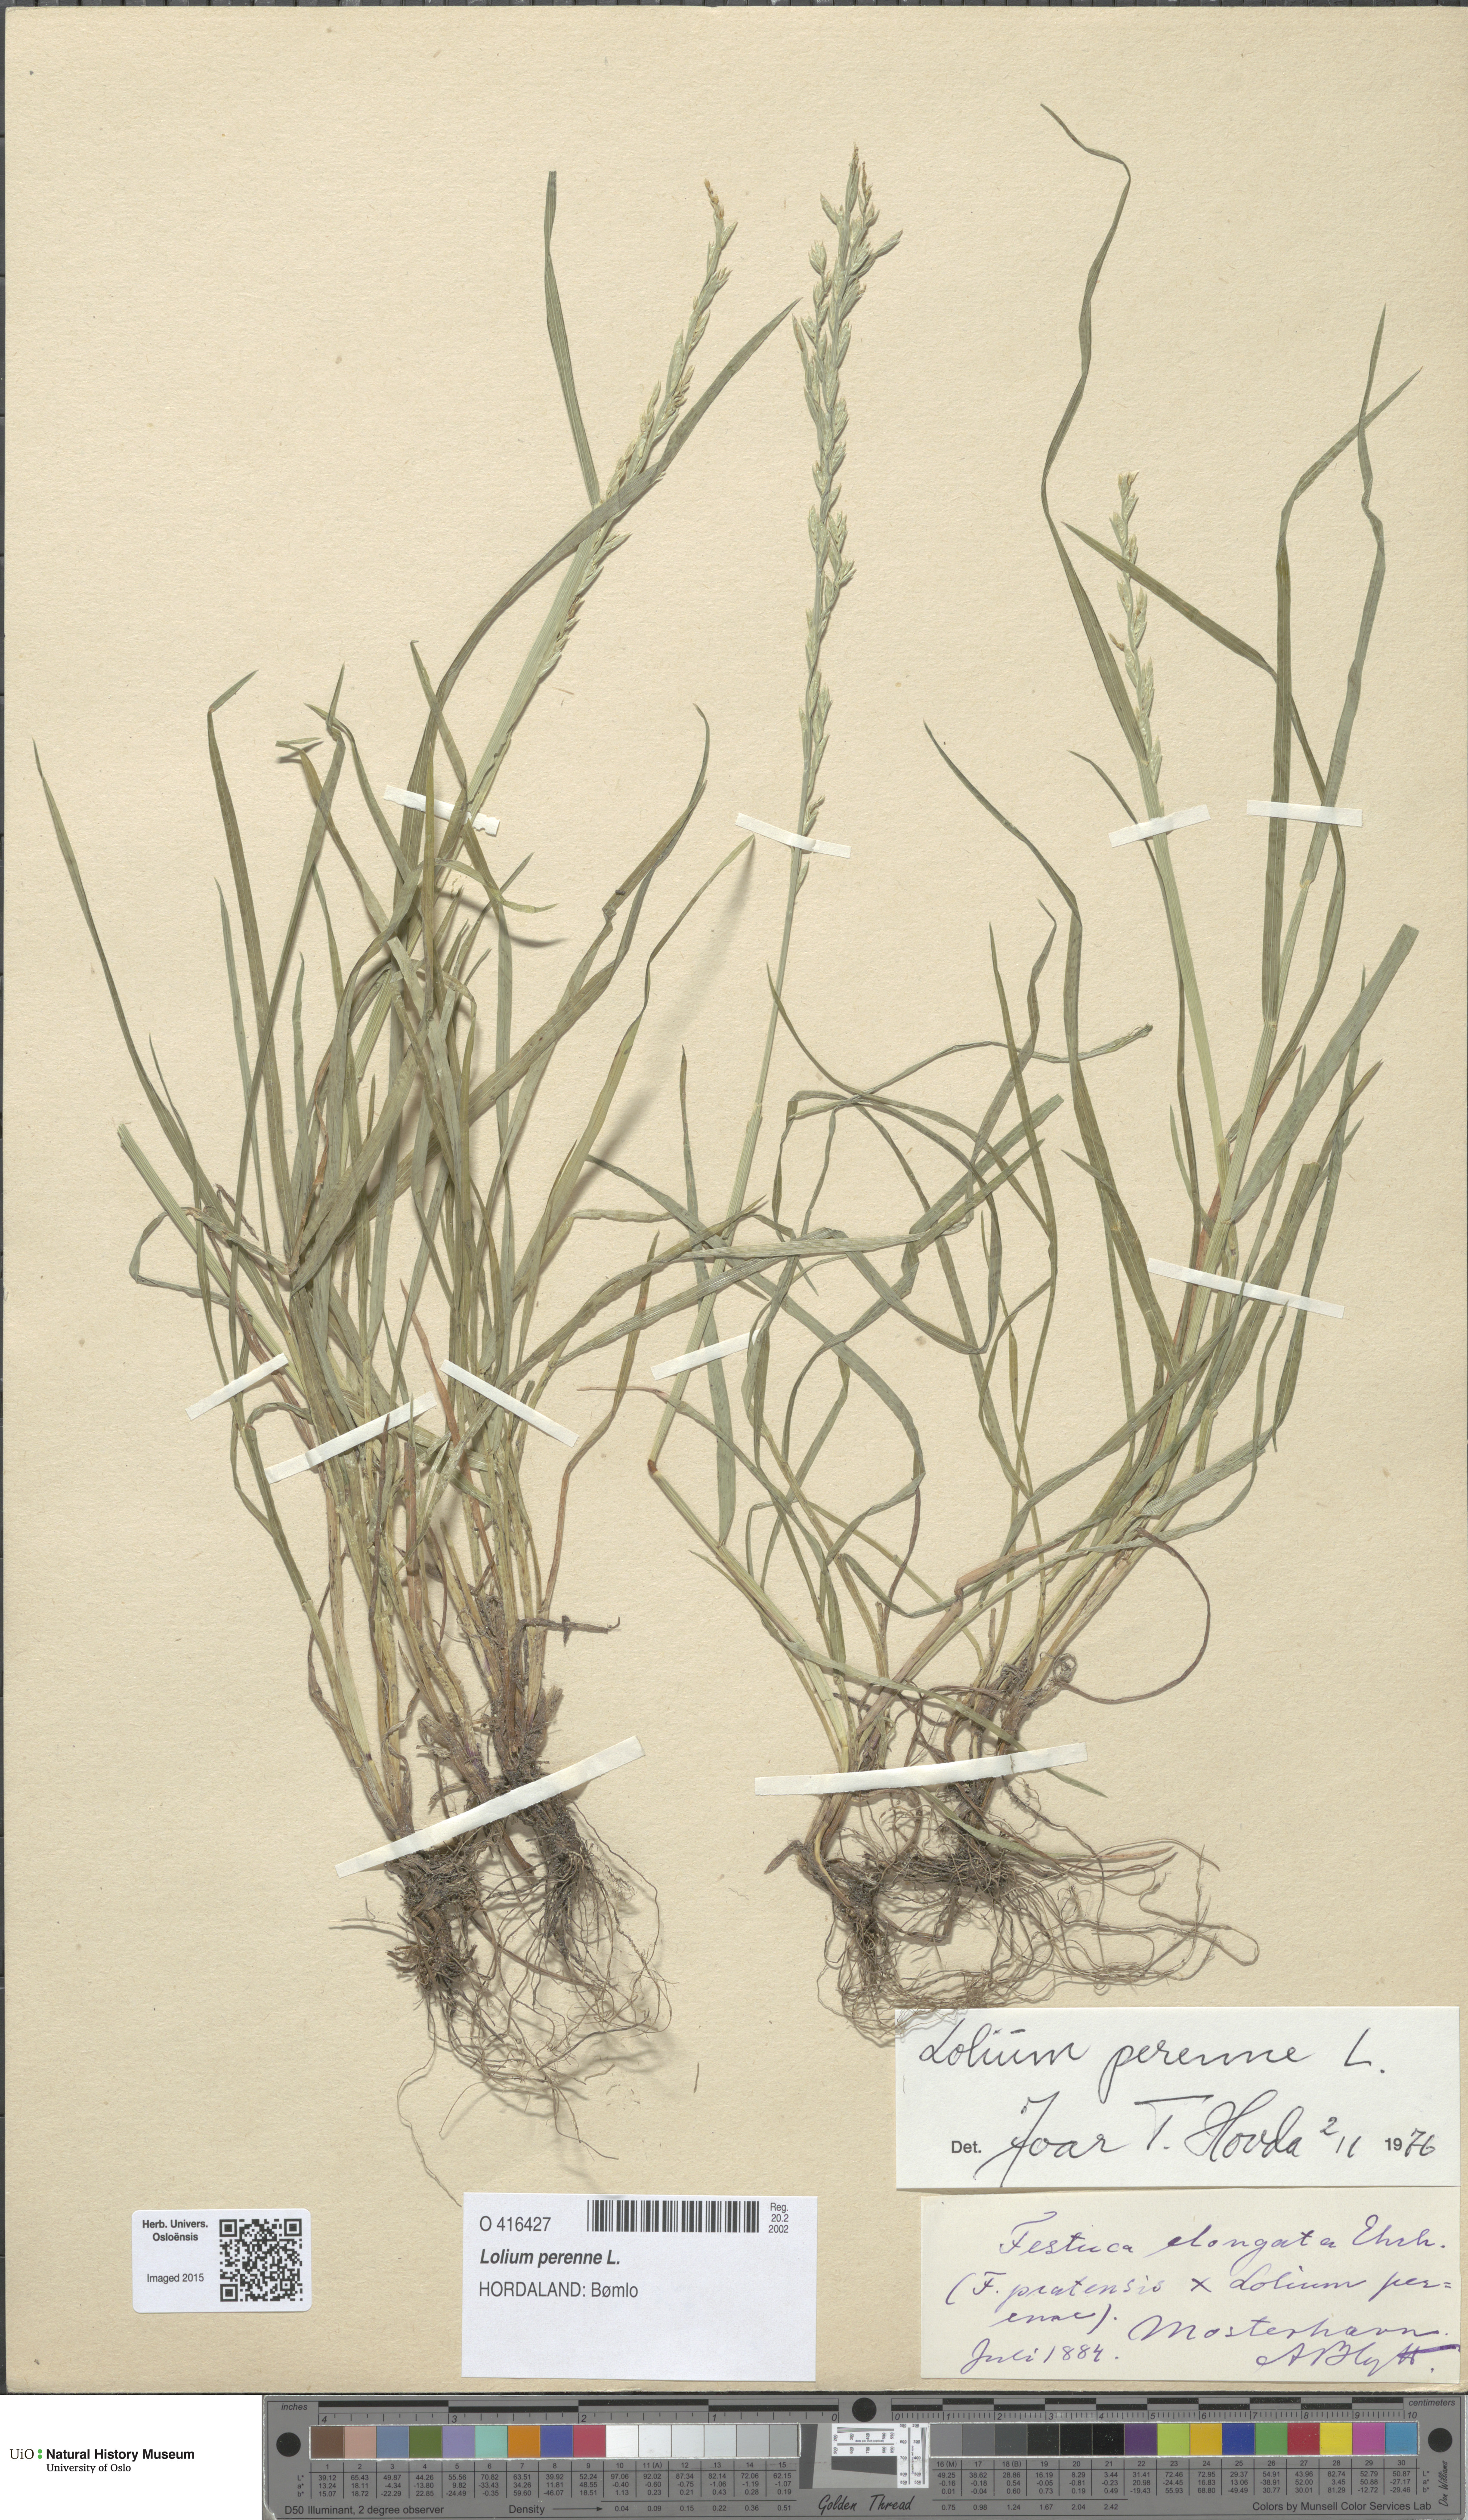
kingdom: Plantae
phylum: Tracheophyta
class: Liliopsida
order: Poales
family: Poaceae
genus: Lolium
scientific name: Lolium perenne
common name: Perennial ryegrass
